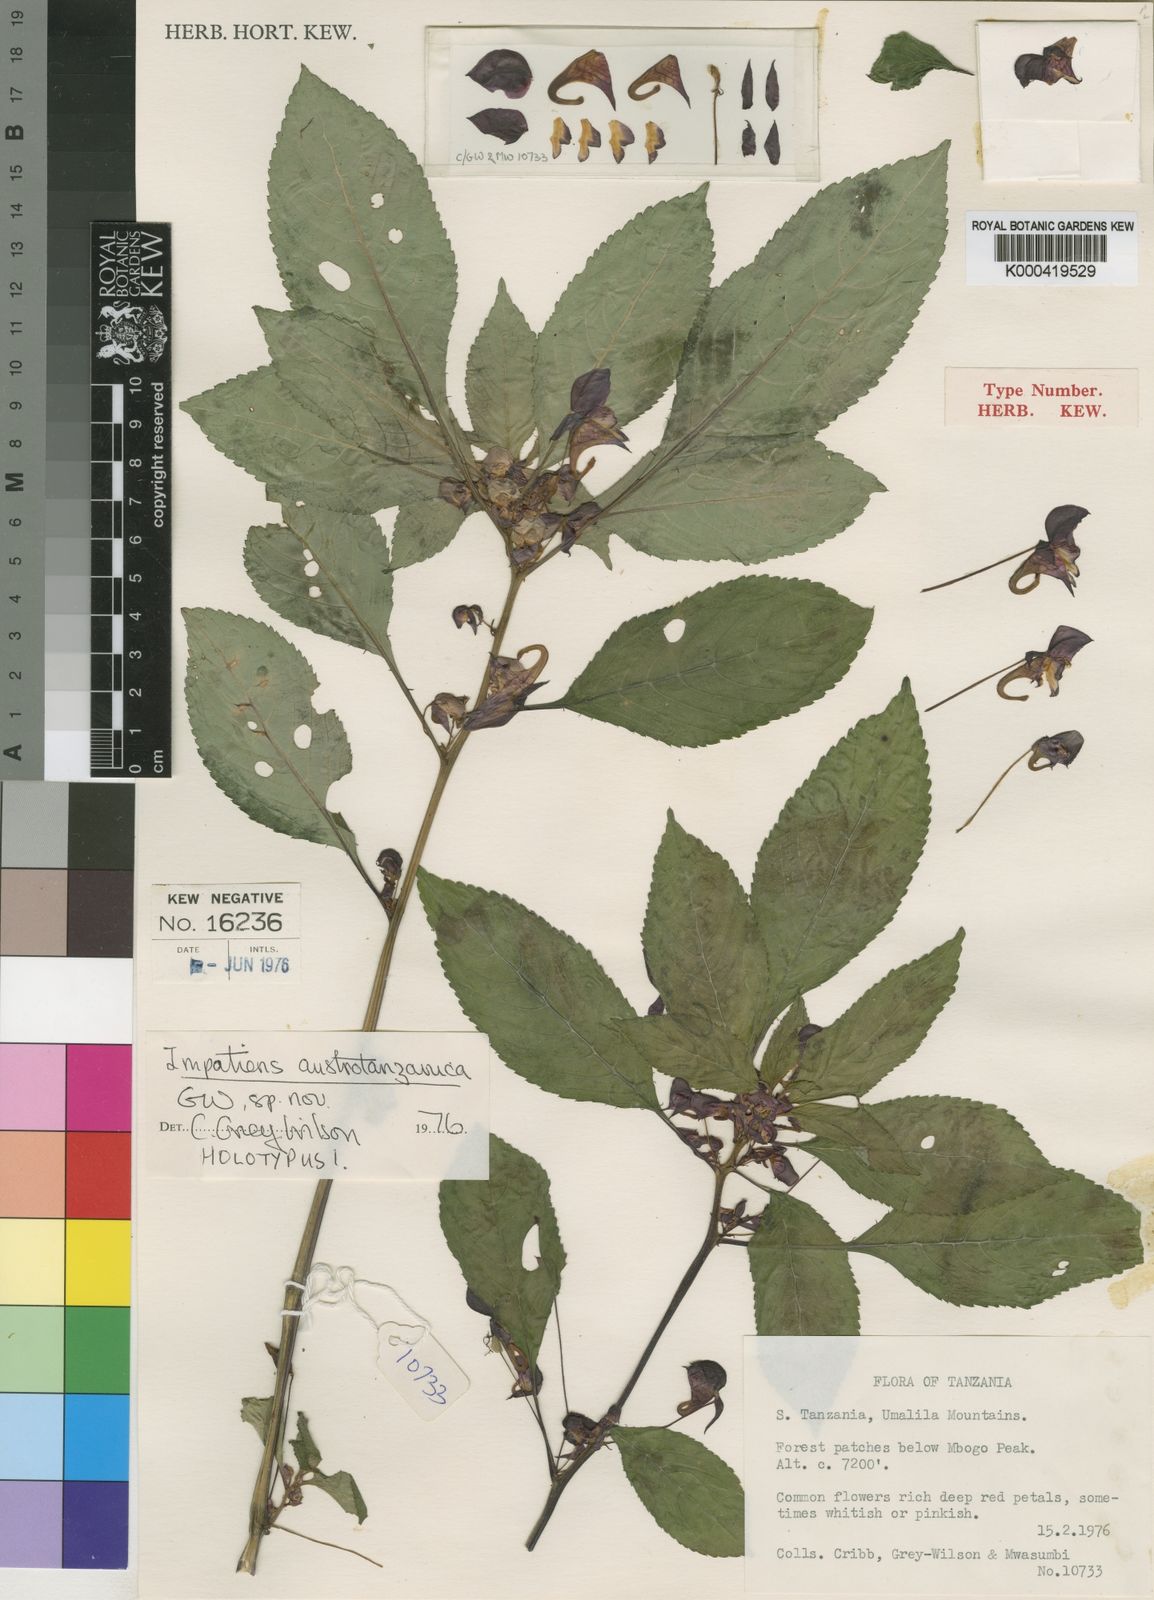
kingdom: Plantae
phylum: Tracheophyta
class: Magnoliopsida
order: Ericales
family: Balsaminaceae
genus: Impatiens
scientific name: Impatiens austrotanzanica
